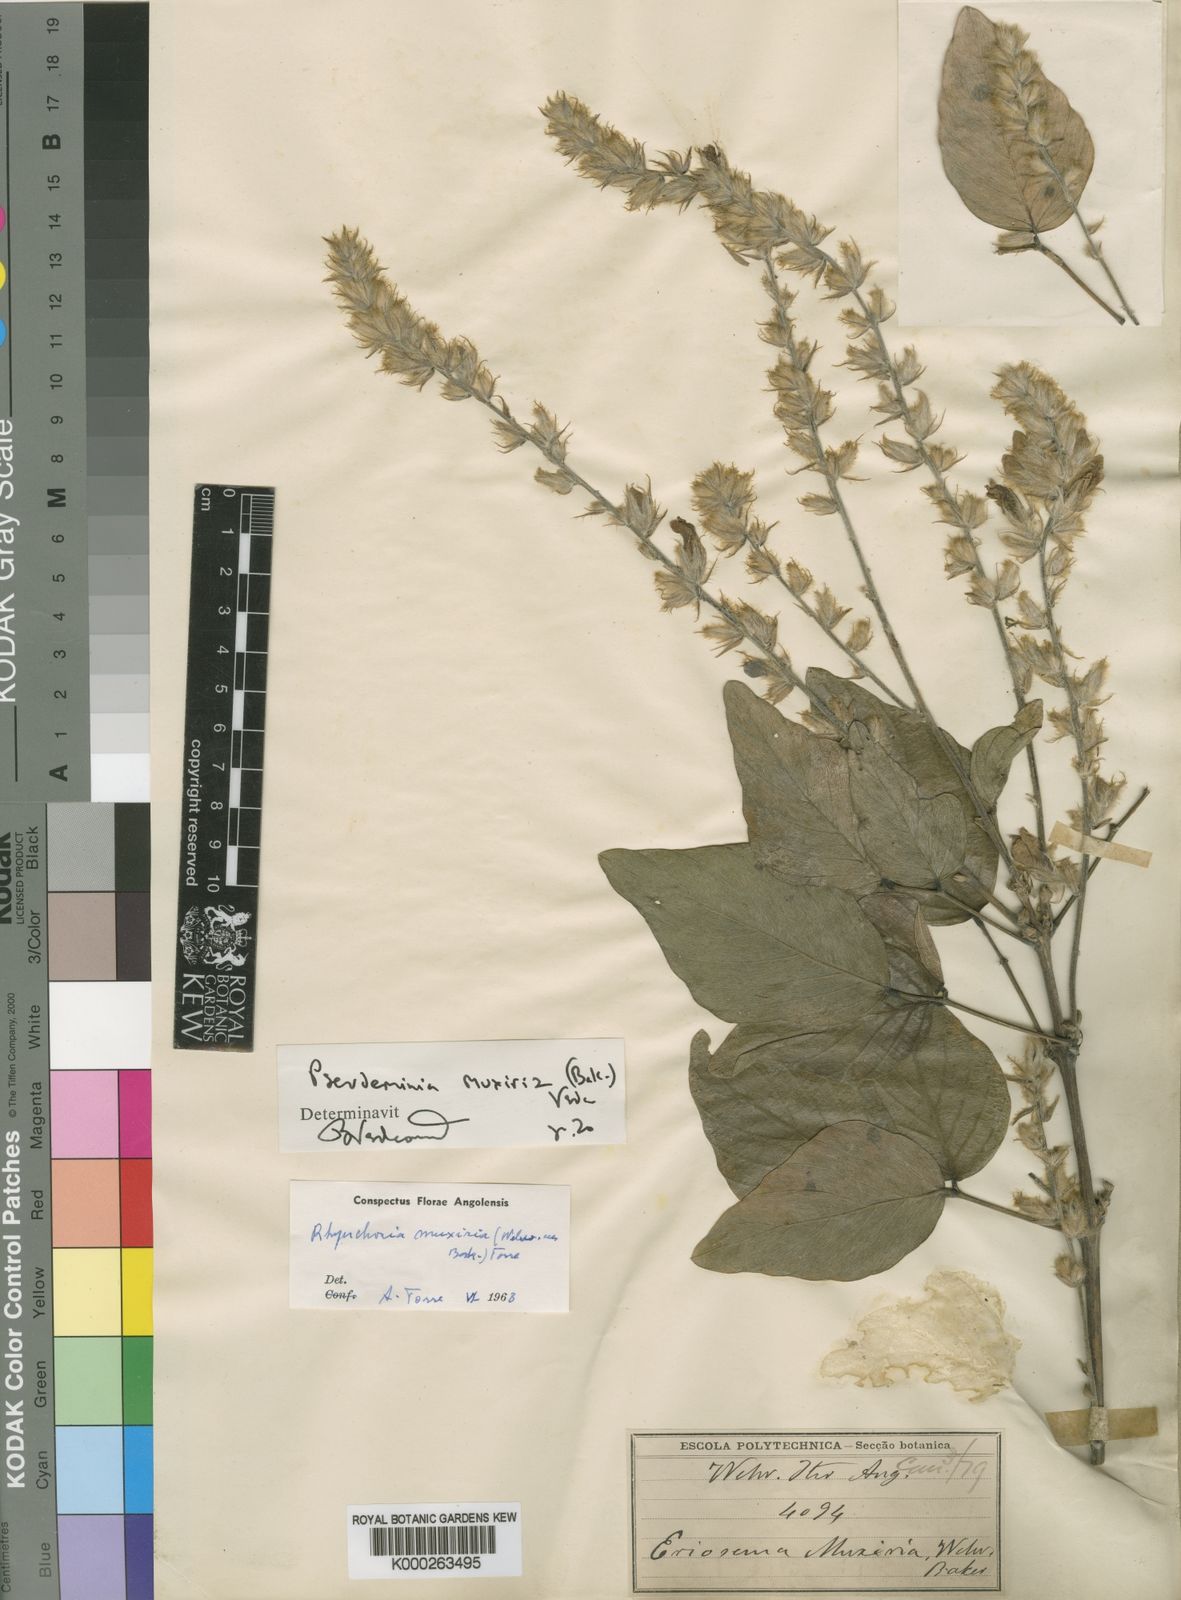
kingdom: Plantae
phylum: Tracheophyta
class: Magnoliopsida
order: Fabales
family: Fabaceae
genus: Pseudeminia
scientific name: Pseudeminia muxiria
